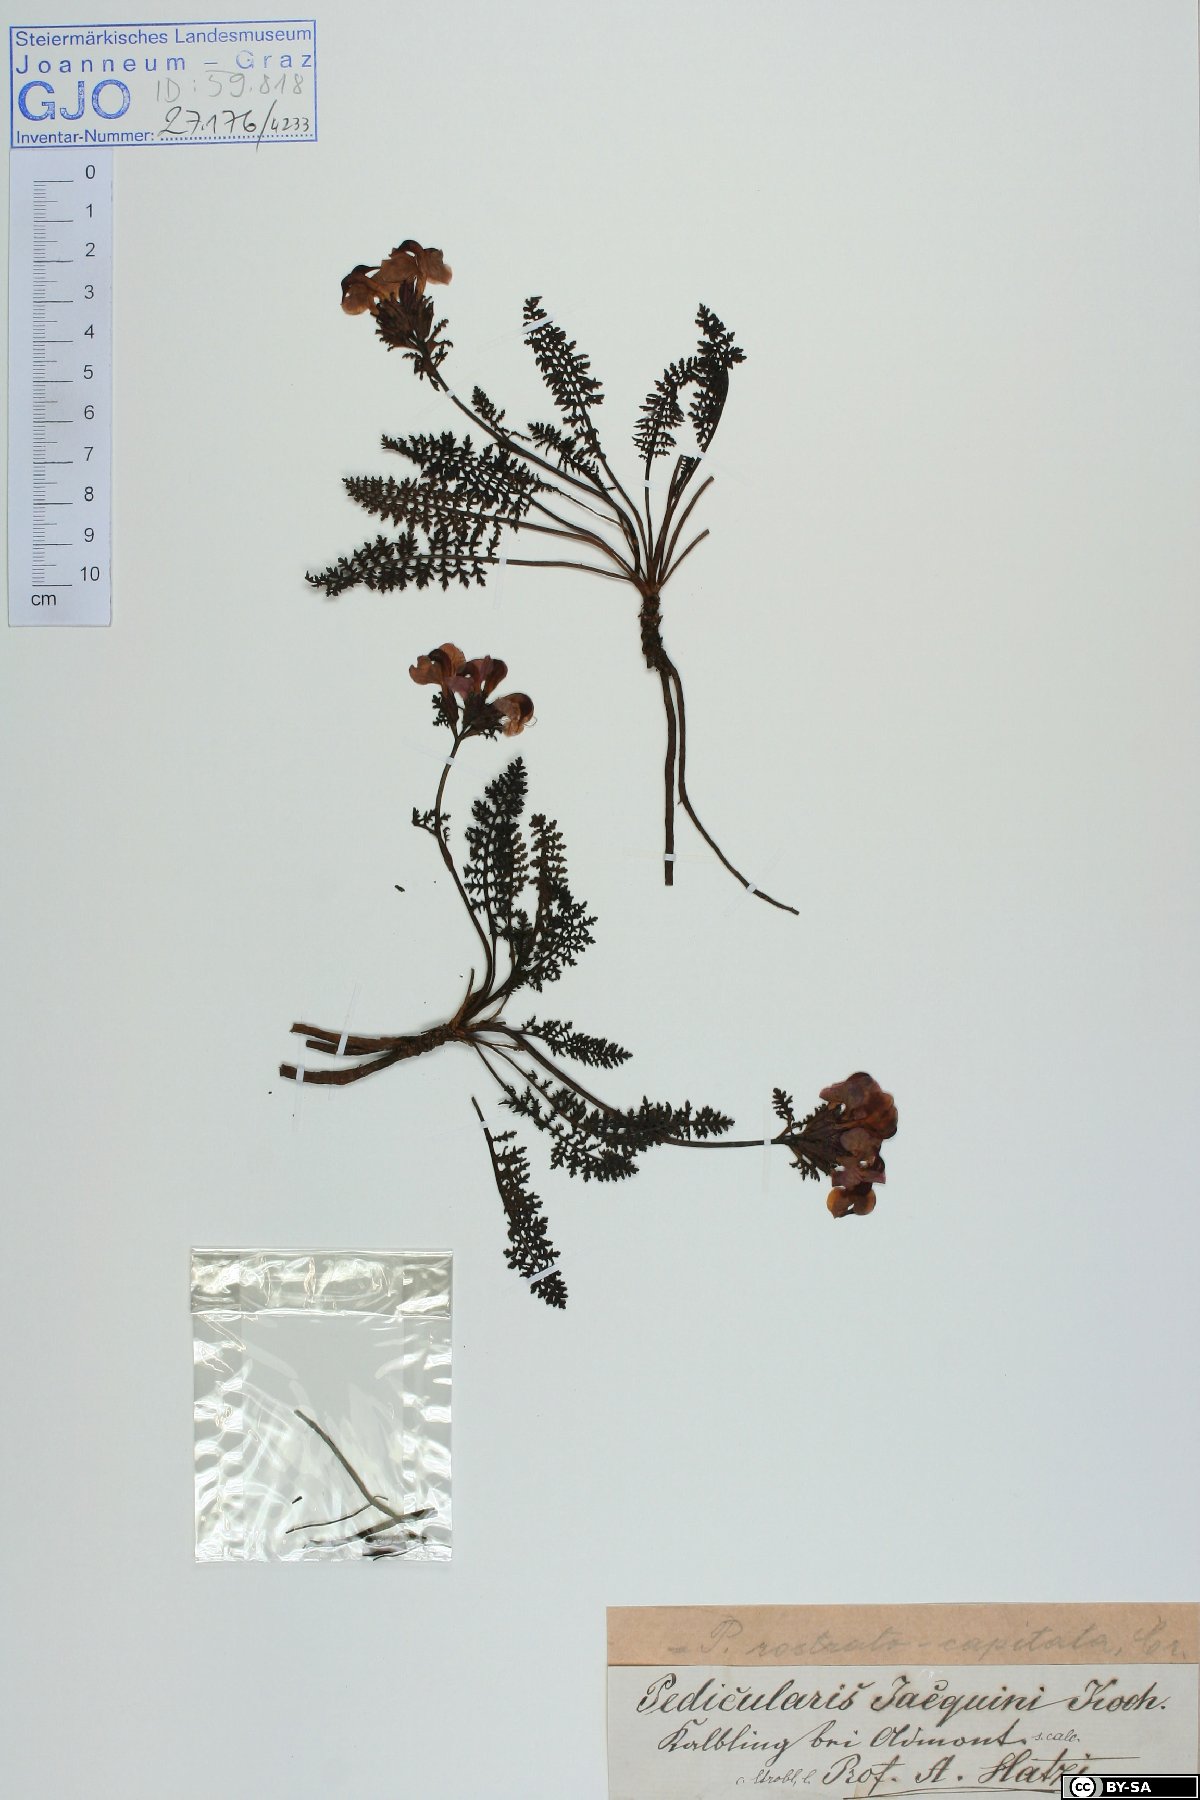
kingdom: Plantae
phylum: Tracheophyta
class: Magnoliopsida
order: Lamiales
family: Orobanchaceae
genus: Pedicularis
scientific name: Pedicularis rostratocapitata
